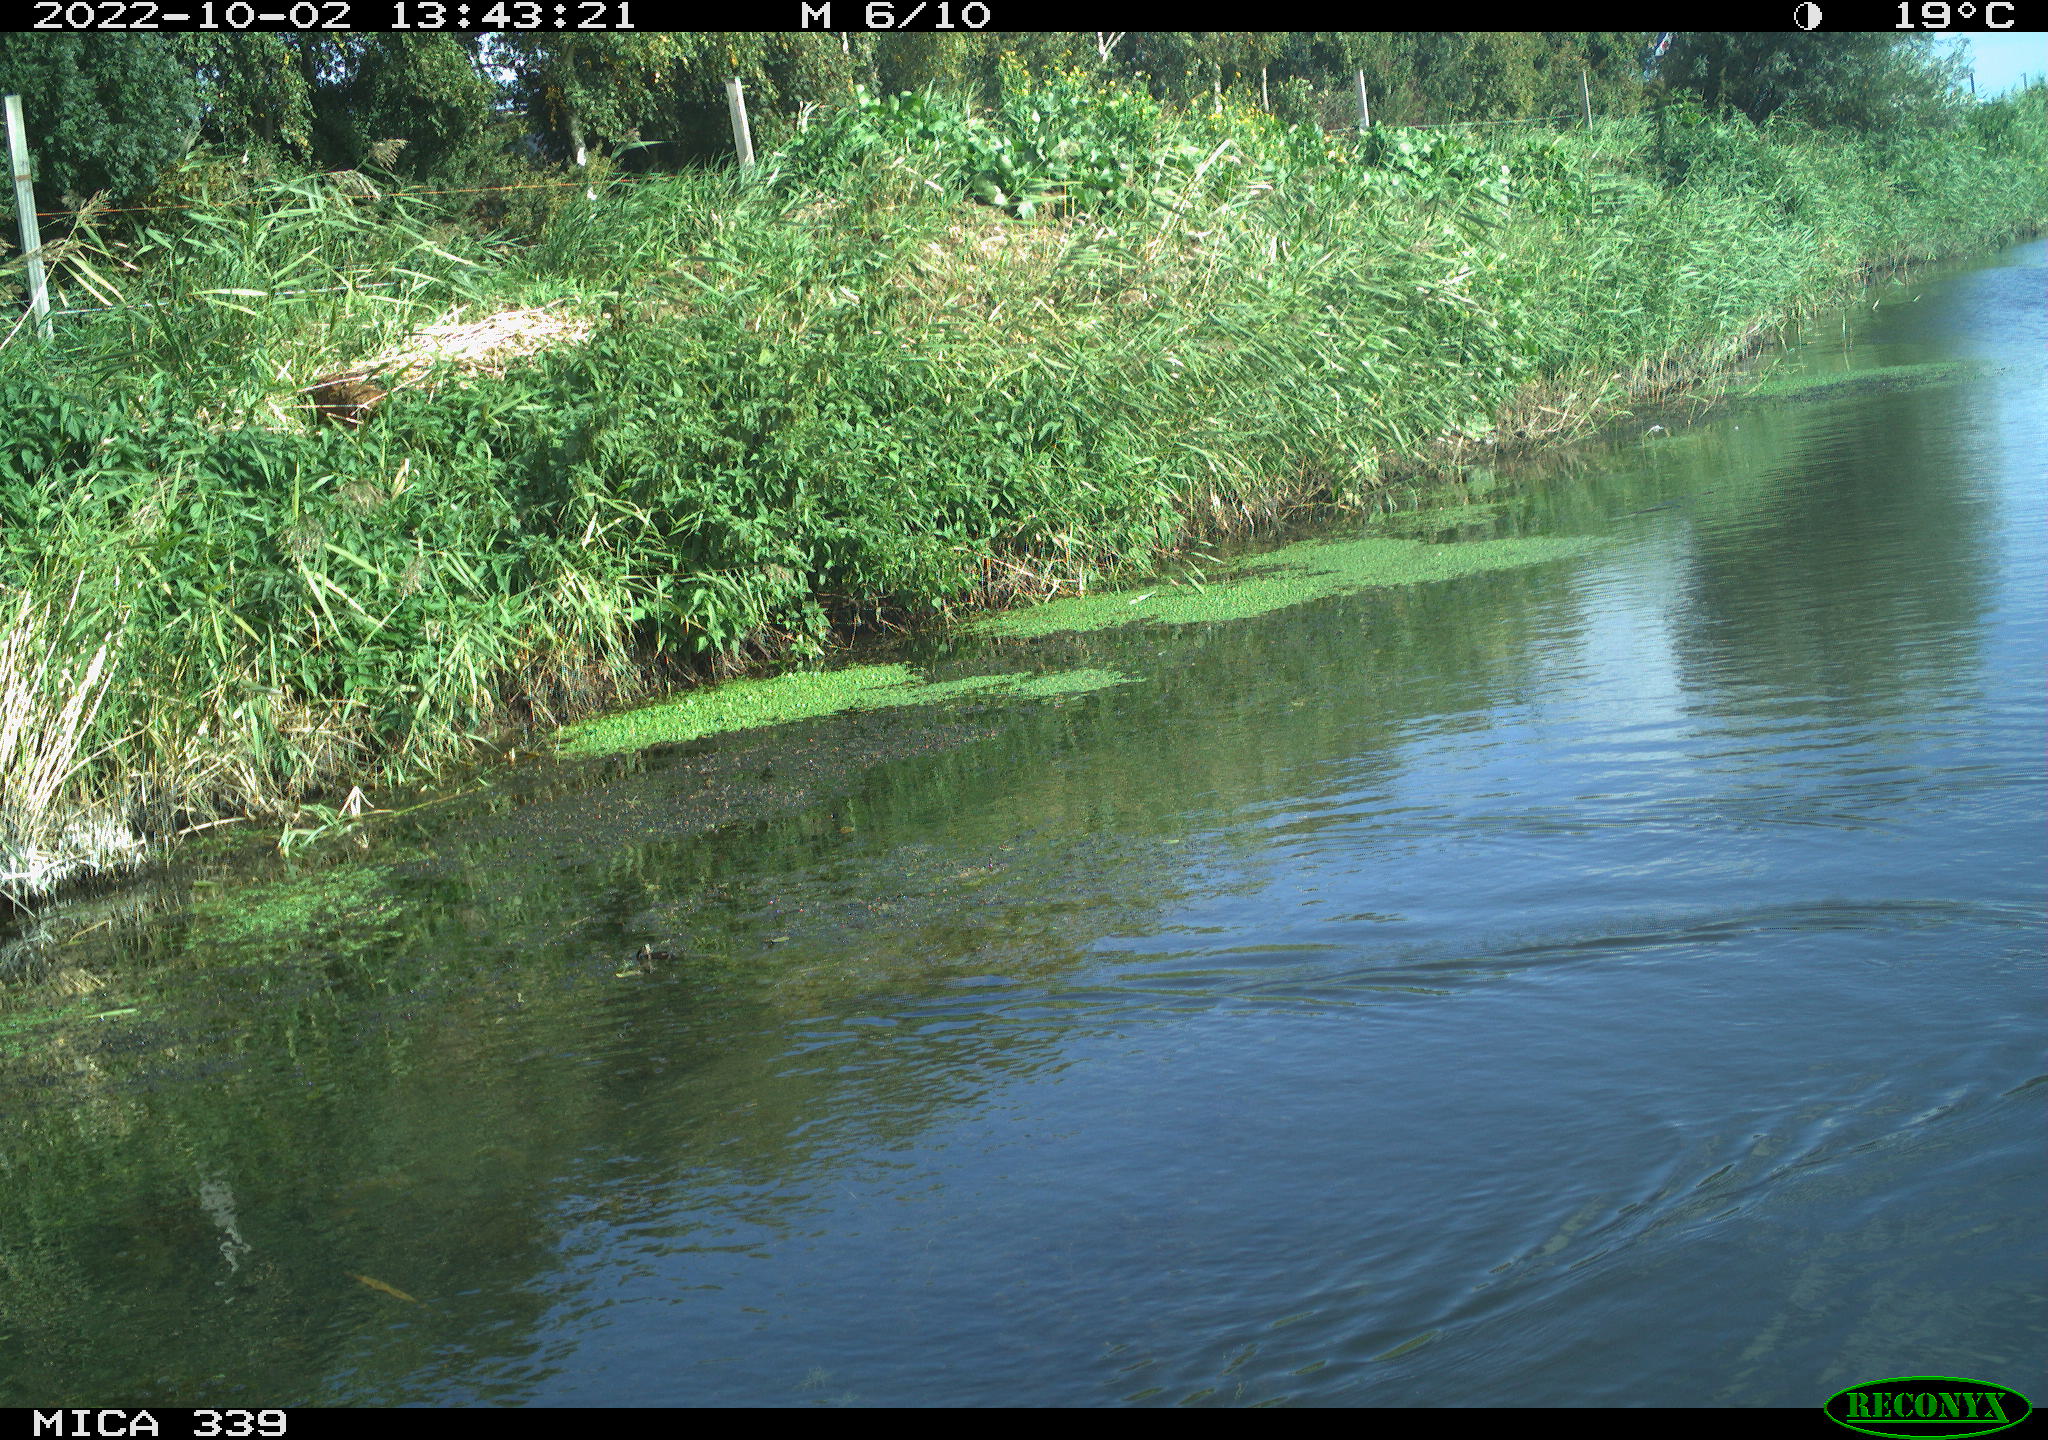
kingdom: Animalia
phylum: Chordata
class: Aves
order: Anseriformes
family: Anatidae
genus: Anas
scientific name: Anas platyrhynchos
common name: Mallard
